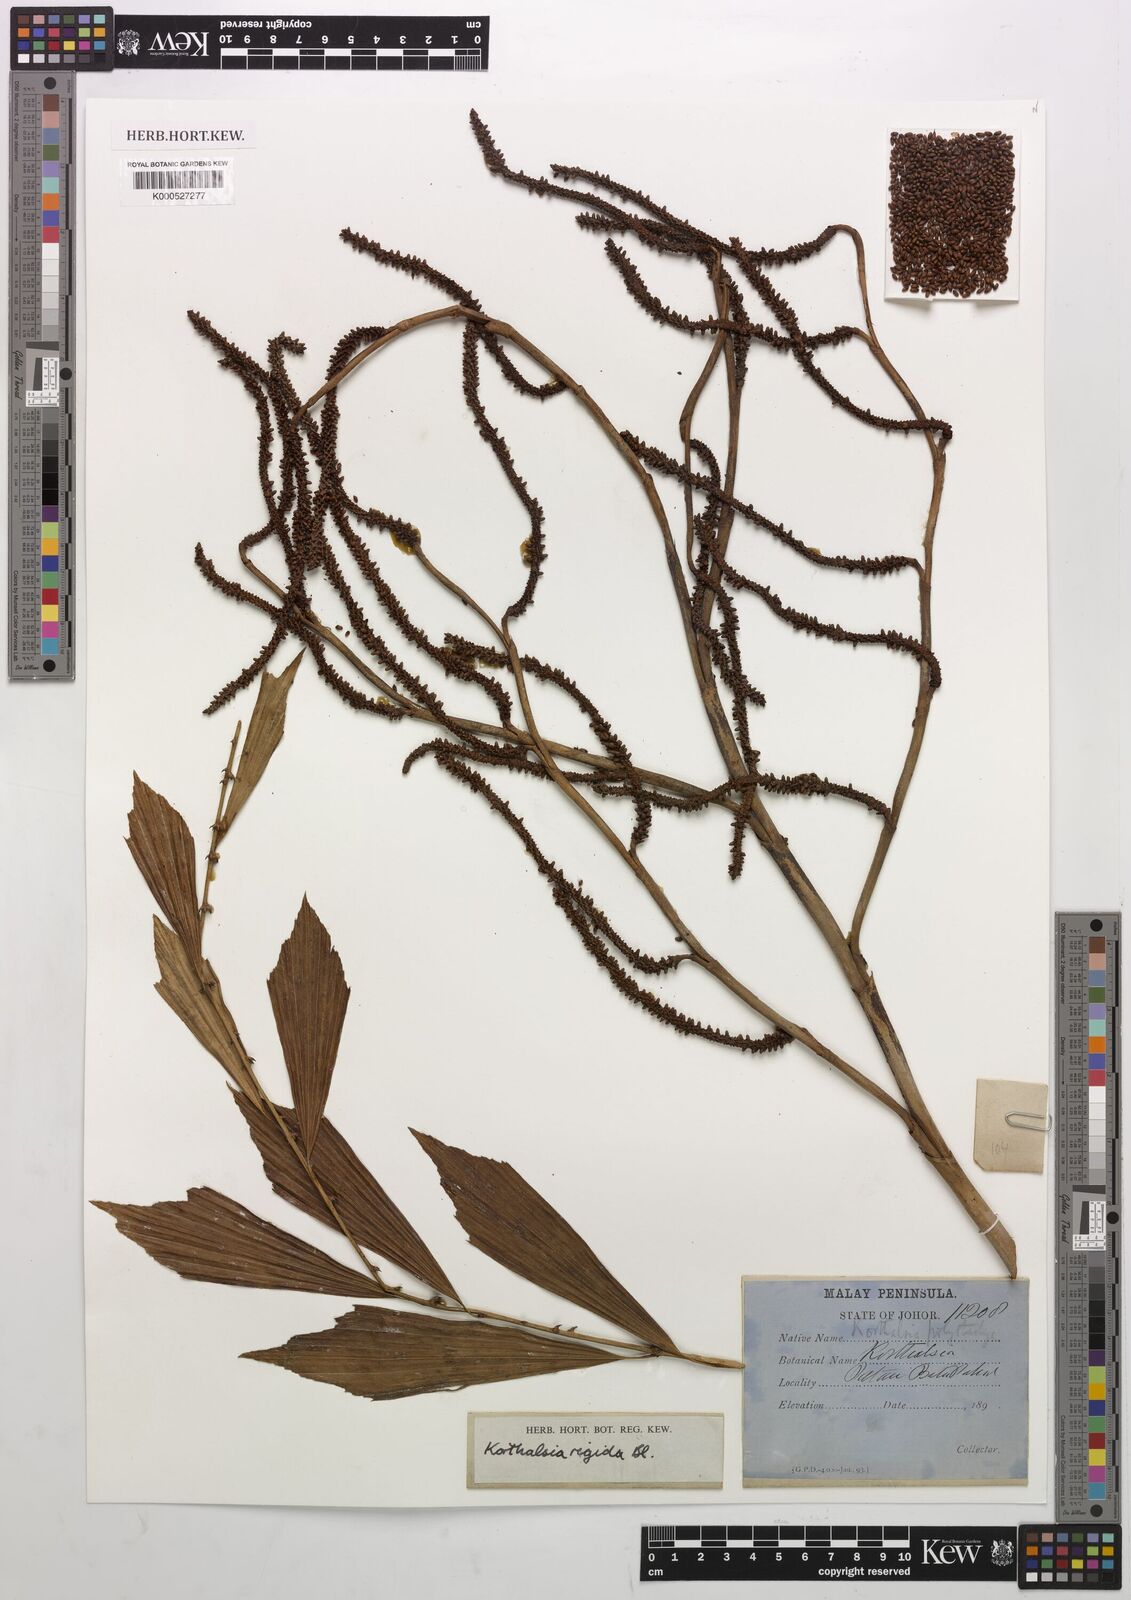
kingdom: Plantae
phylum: Tracheophyta
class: Liliopsida
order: Arecales
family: Arecaceae
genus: Korthalsia
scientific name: Korthalsia rigida
